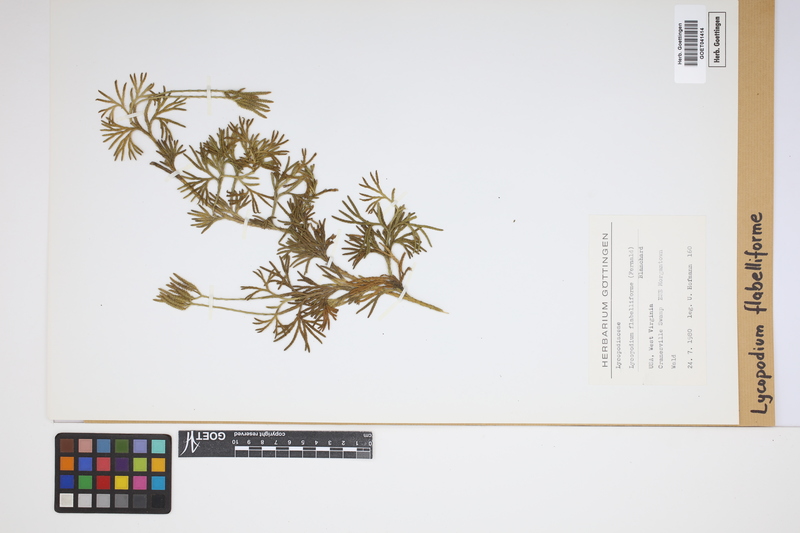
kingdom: Plantae
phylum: Tracheophyta
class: Lycopodiopsida
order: Lycopodiales
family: Lycopodiaceae
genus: Diphasiastrum
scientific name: Diphasiastrum digitatum
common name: Southern running-pine
